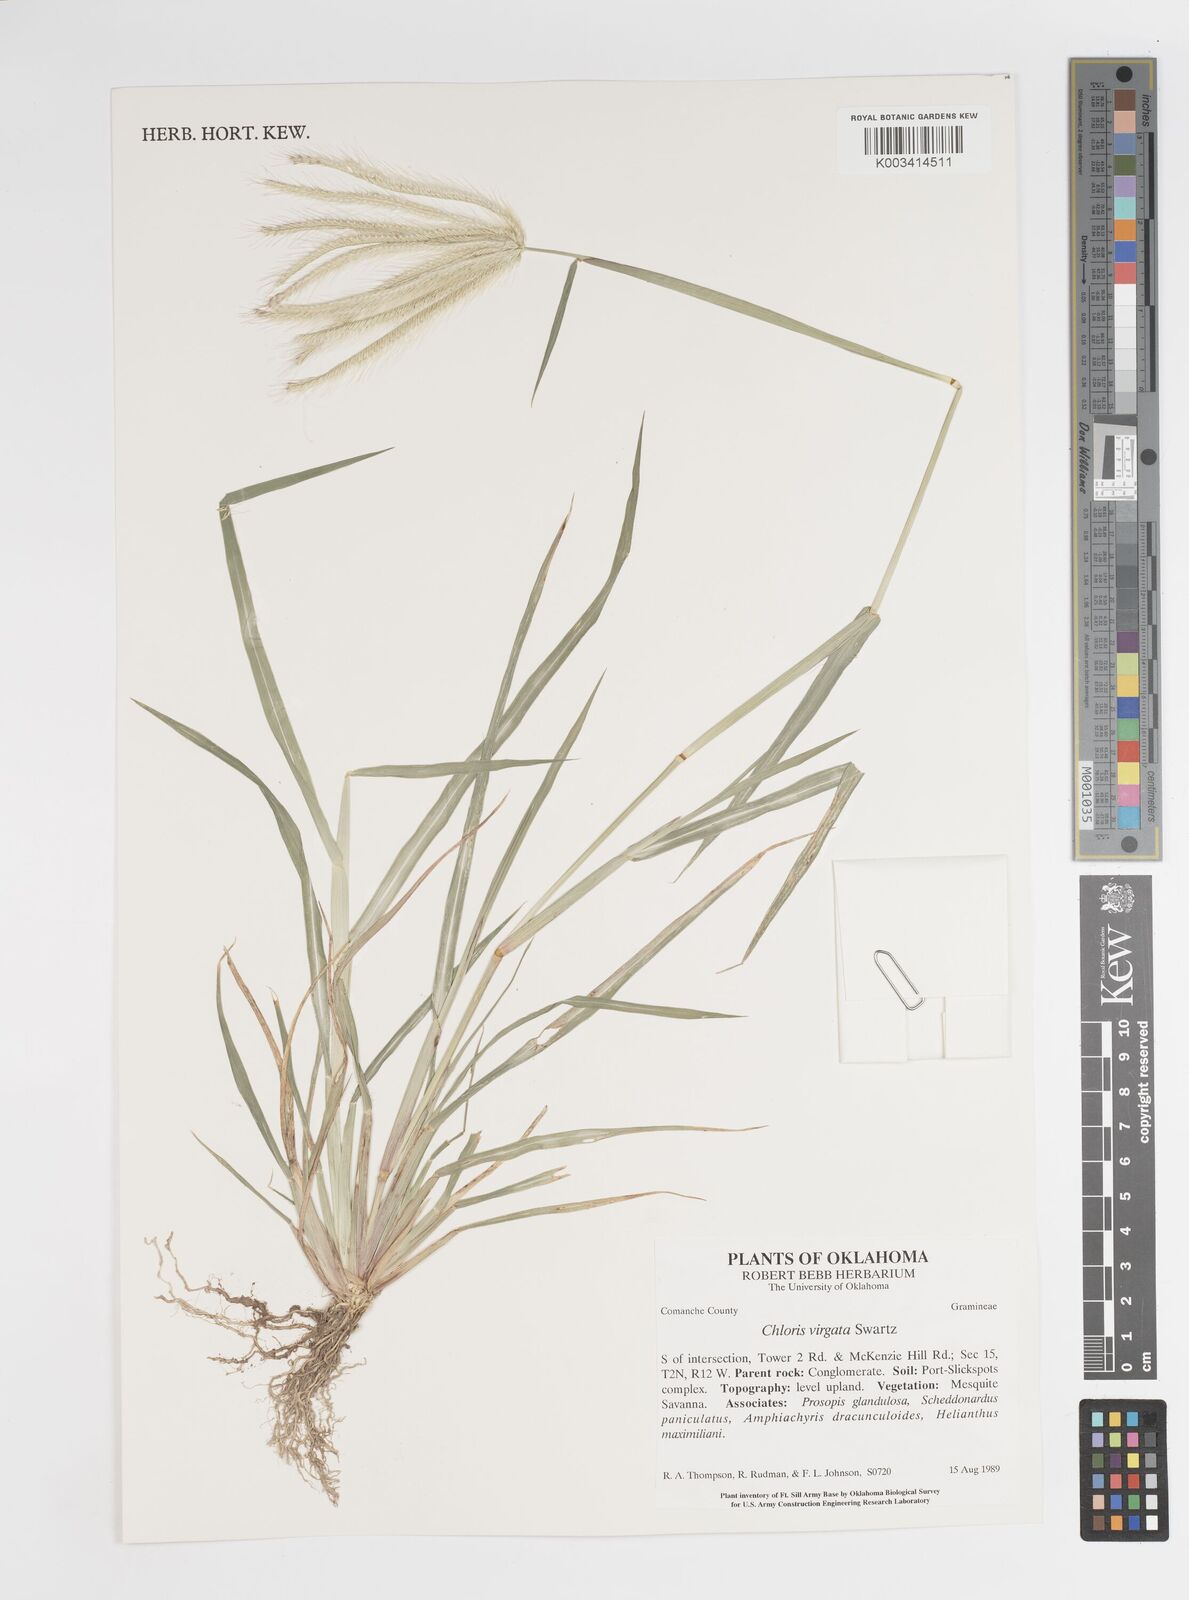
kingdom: Plantae
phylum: Tracheophyta
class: Liliopsida
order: Poales
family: Poaceae
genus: Chloris
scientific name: Chloris virgata
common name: Feathery rhodes-grass
